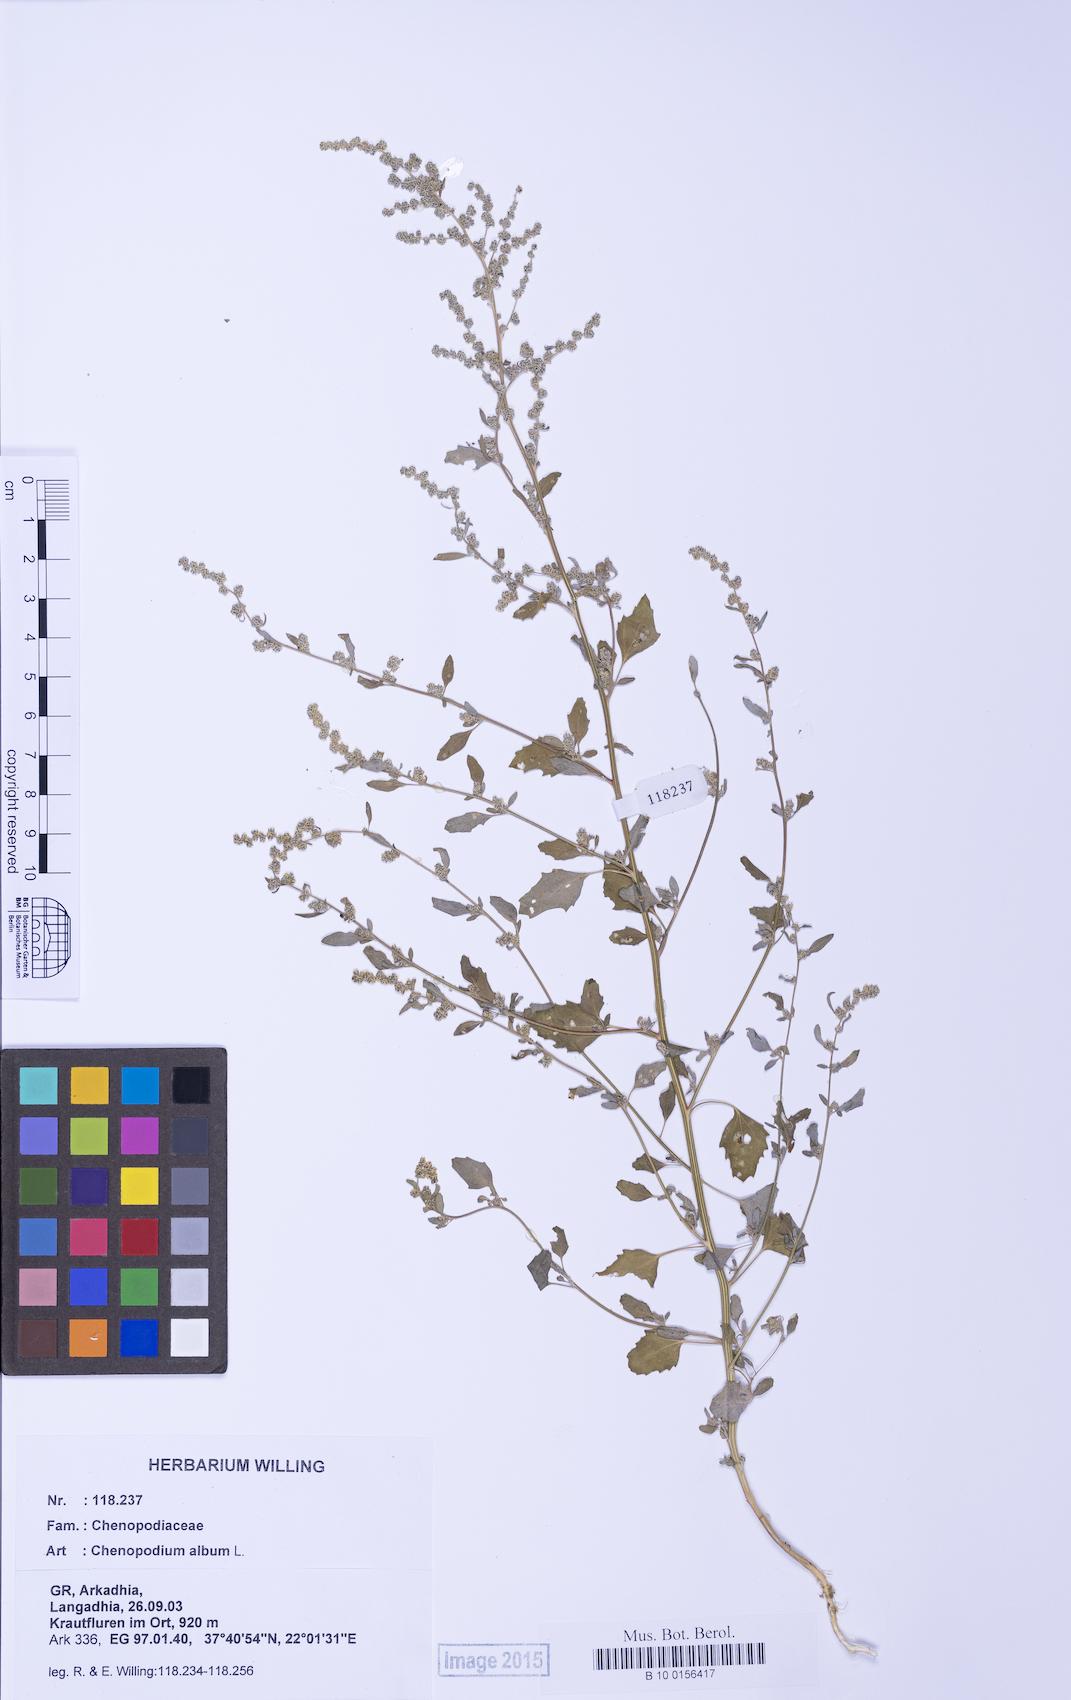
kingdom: Plantae
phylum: Tracheophyta
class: Magnoliopsida
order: Caryophyllales
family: Amaranthaceae
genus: Chenopodium
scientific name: Chenopodium album
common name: Fat-hen
